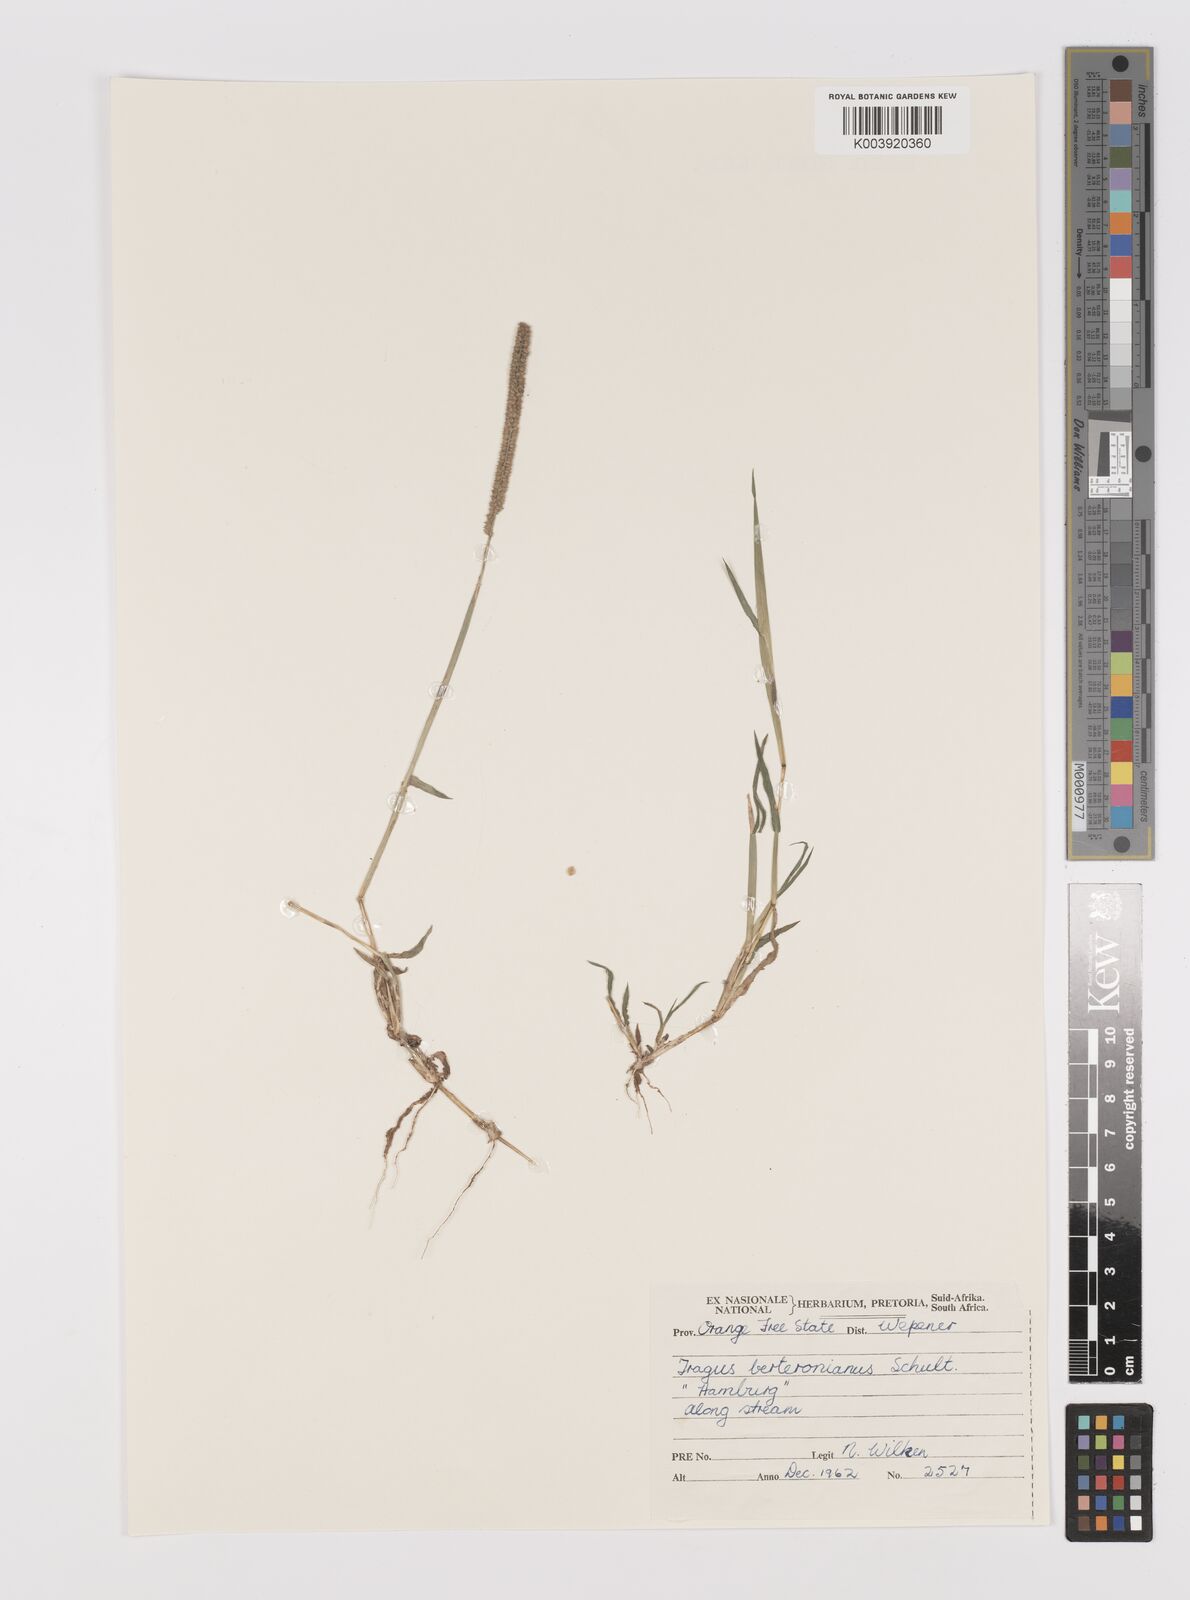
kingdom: Plantae
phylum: Tracheophyta
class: Liliopsida
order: Poales
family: Poaceae
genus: Tragus
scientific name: Tragus berteronianus
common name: African bur-grass
